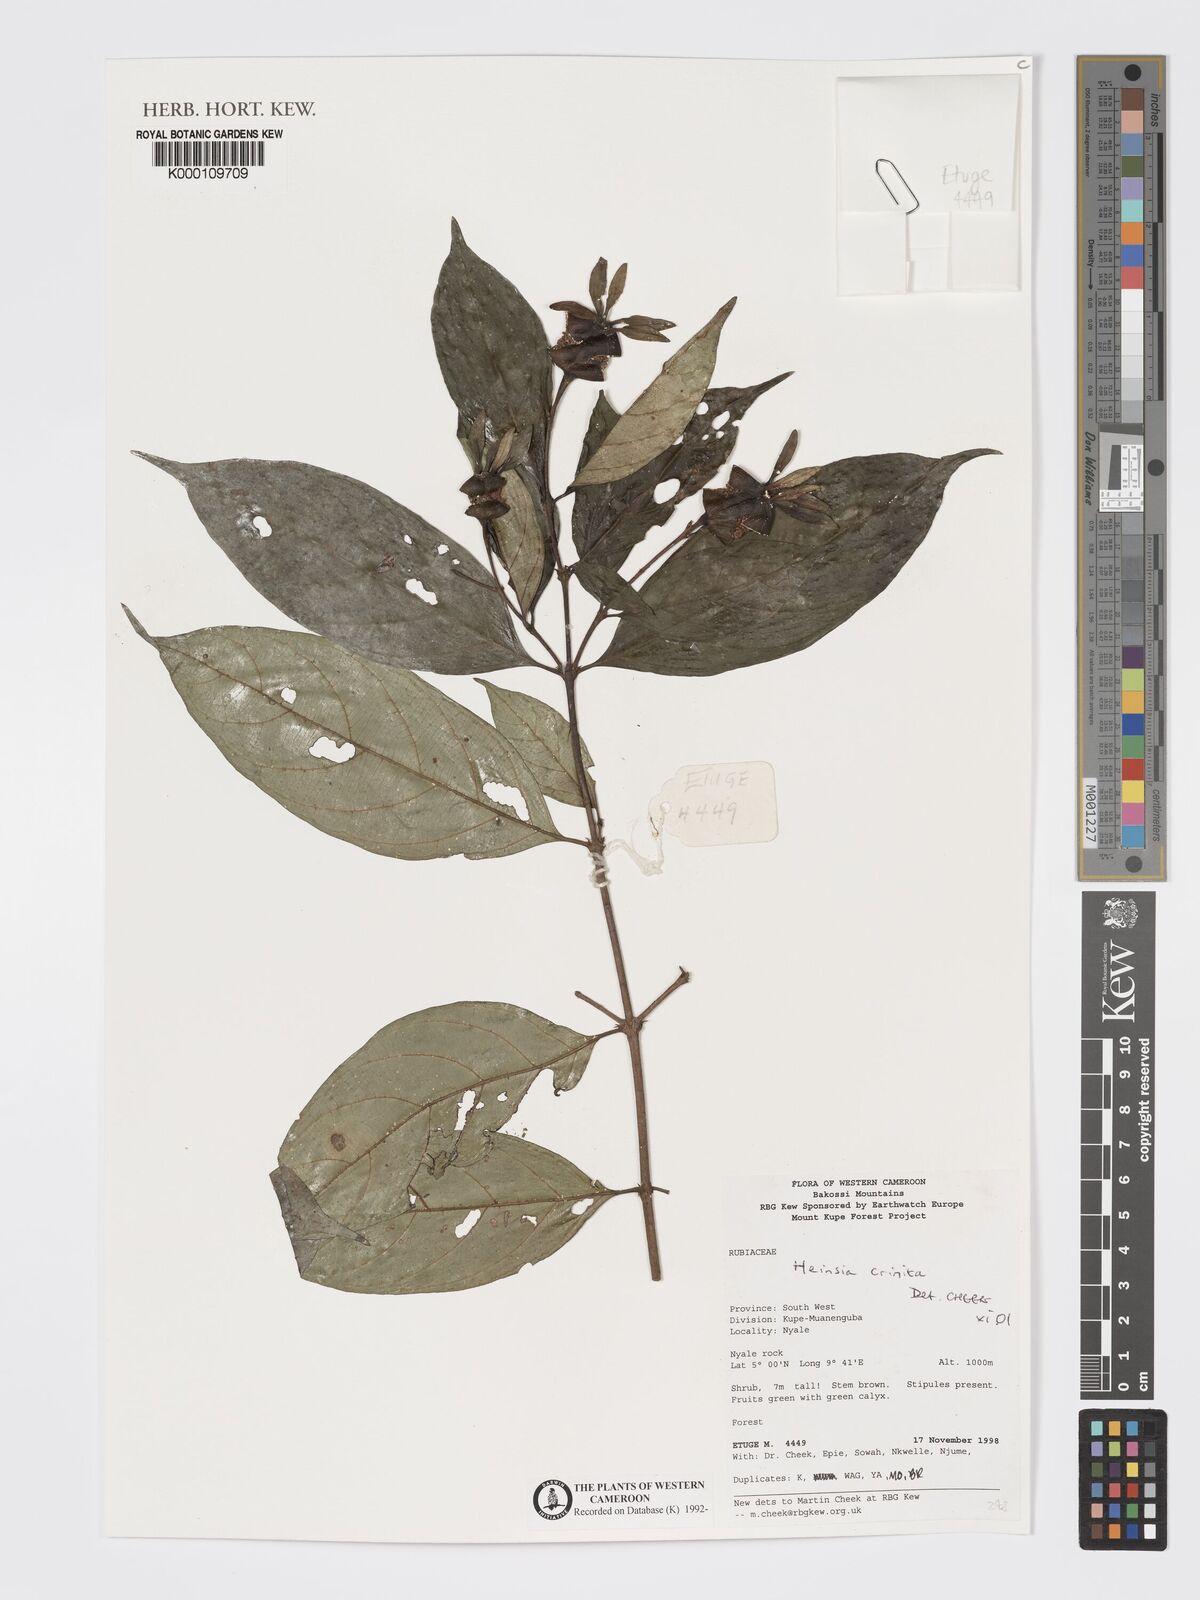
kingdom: Plantae
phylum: Tracheophyta
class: Magnoliopsida
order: Gentianales
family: Rubiaceae
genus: Heinsia
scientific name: Heinsia crinita
